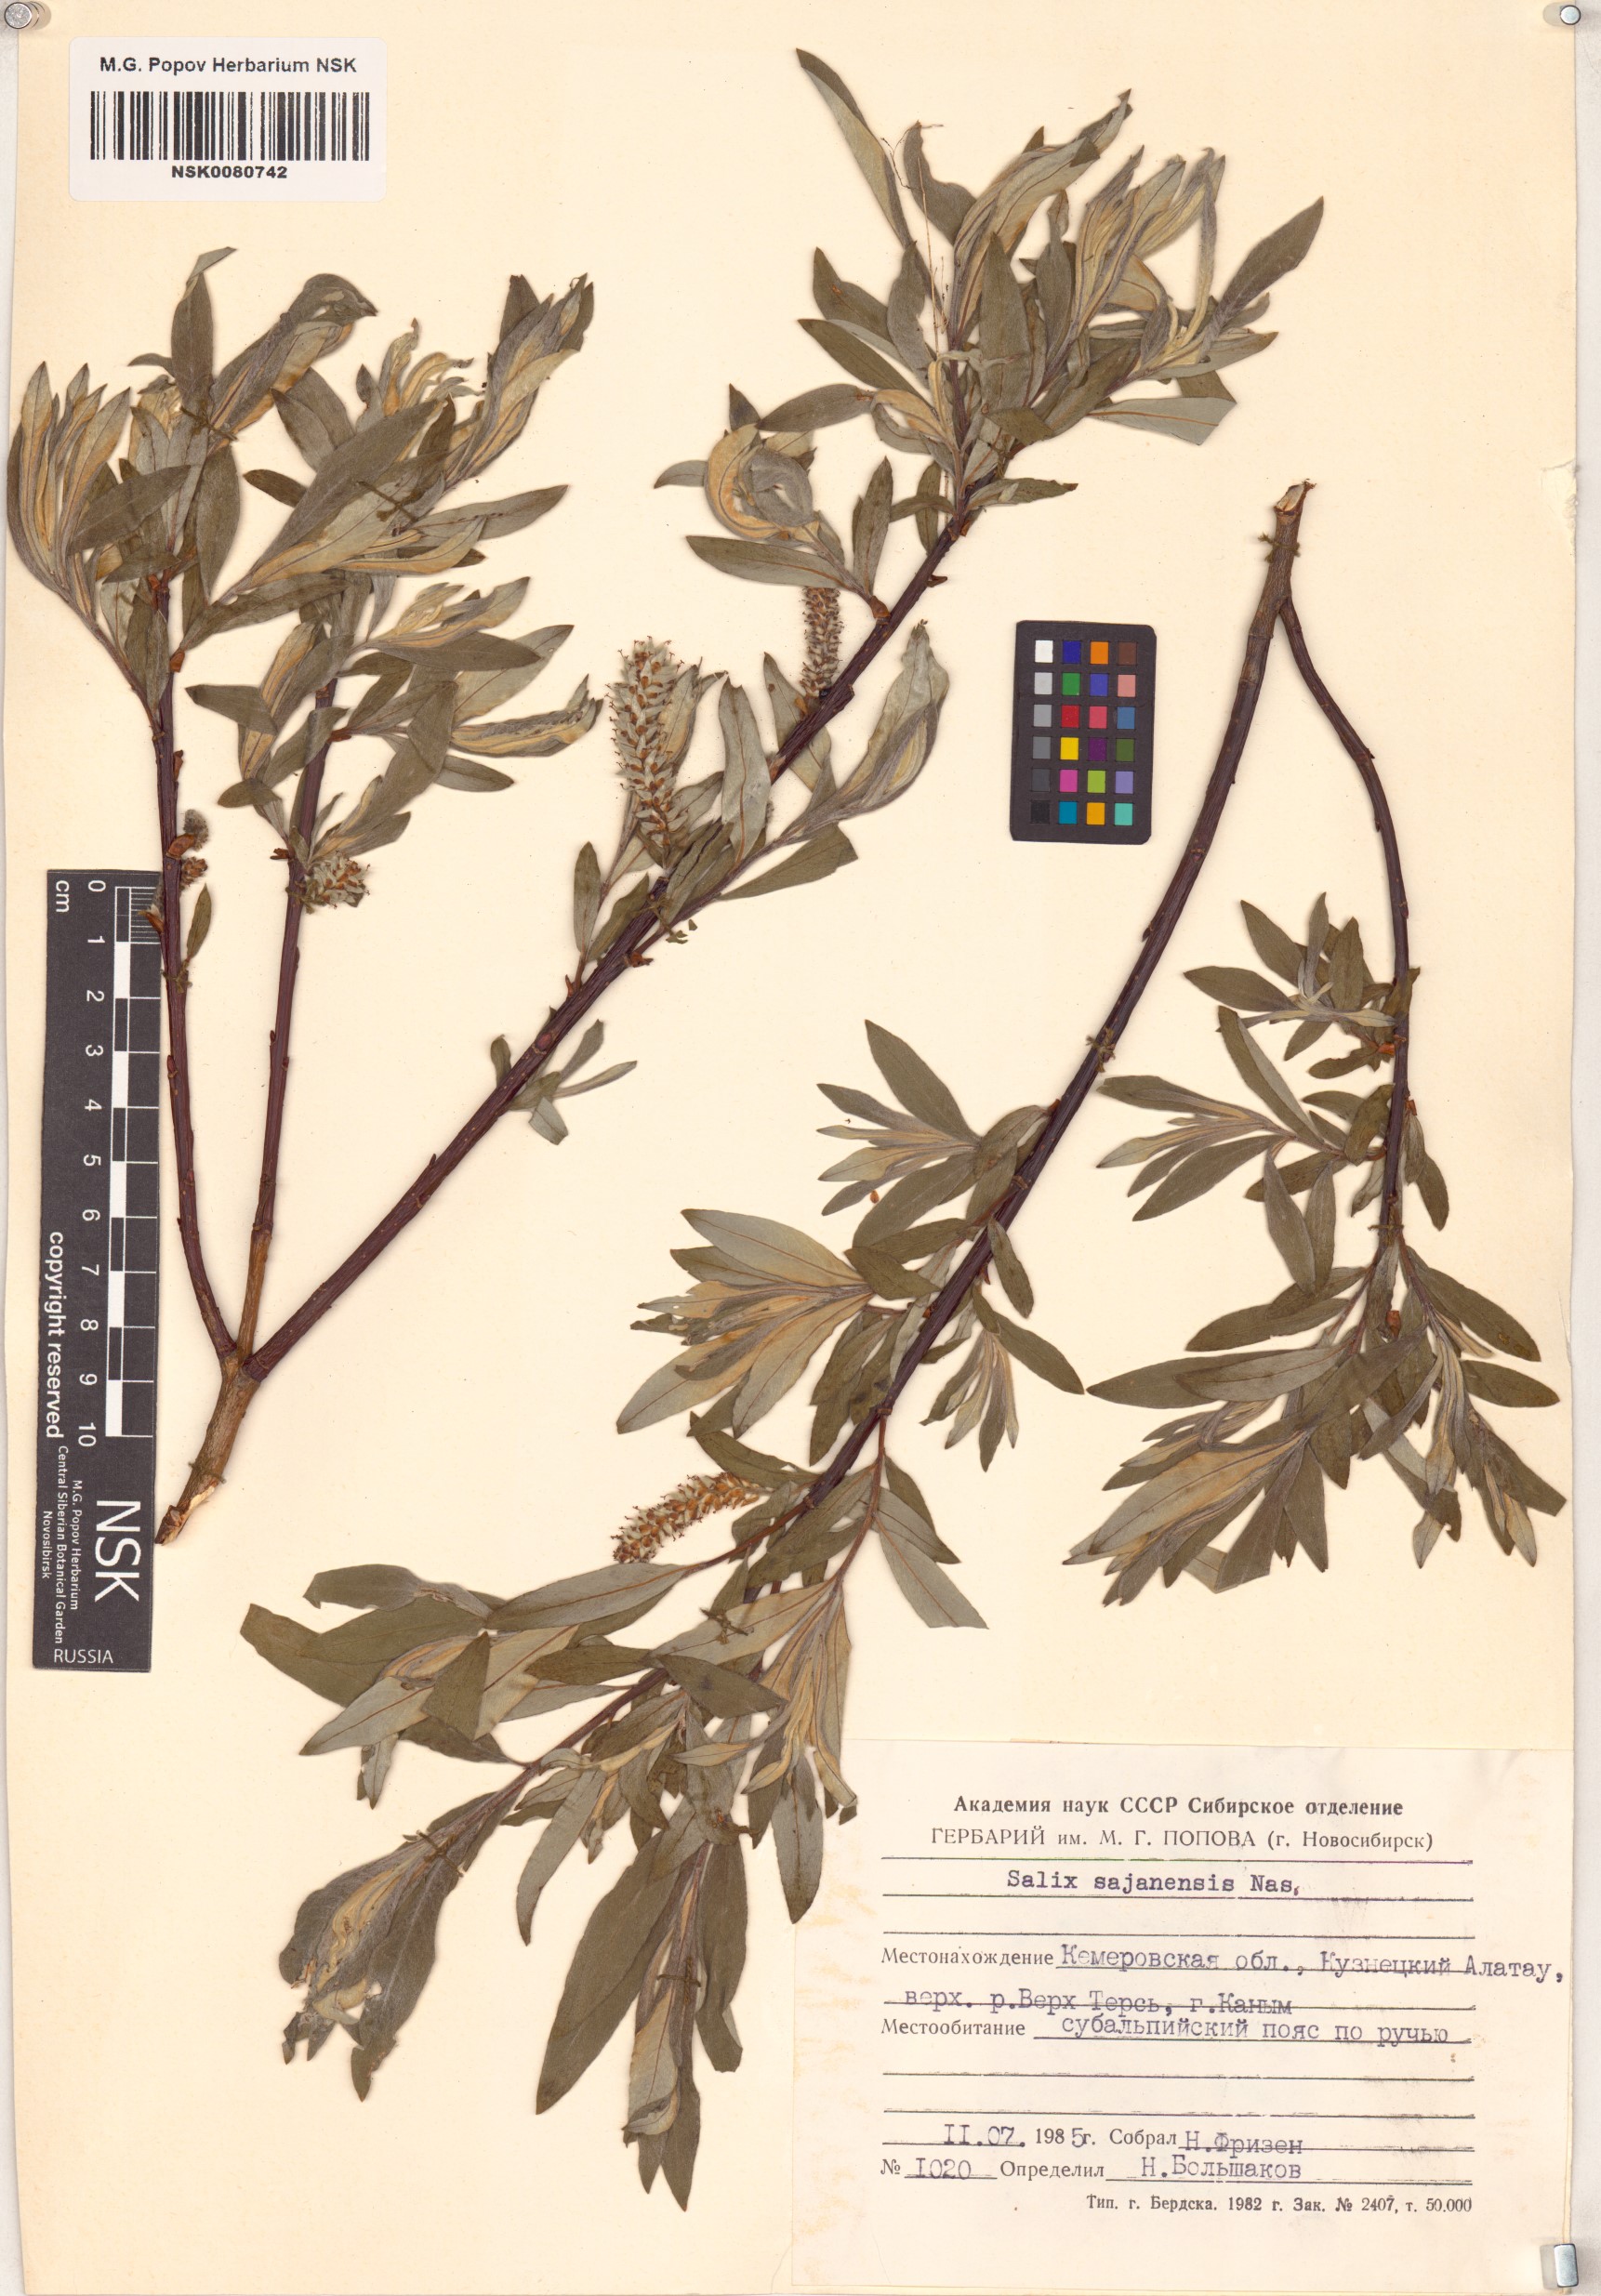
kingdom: Plantae
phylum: Tracheophyta
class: Magnoliopsida
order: Malpighiales
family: Salicaceae
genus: Salix
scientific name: Salix sajanensis
